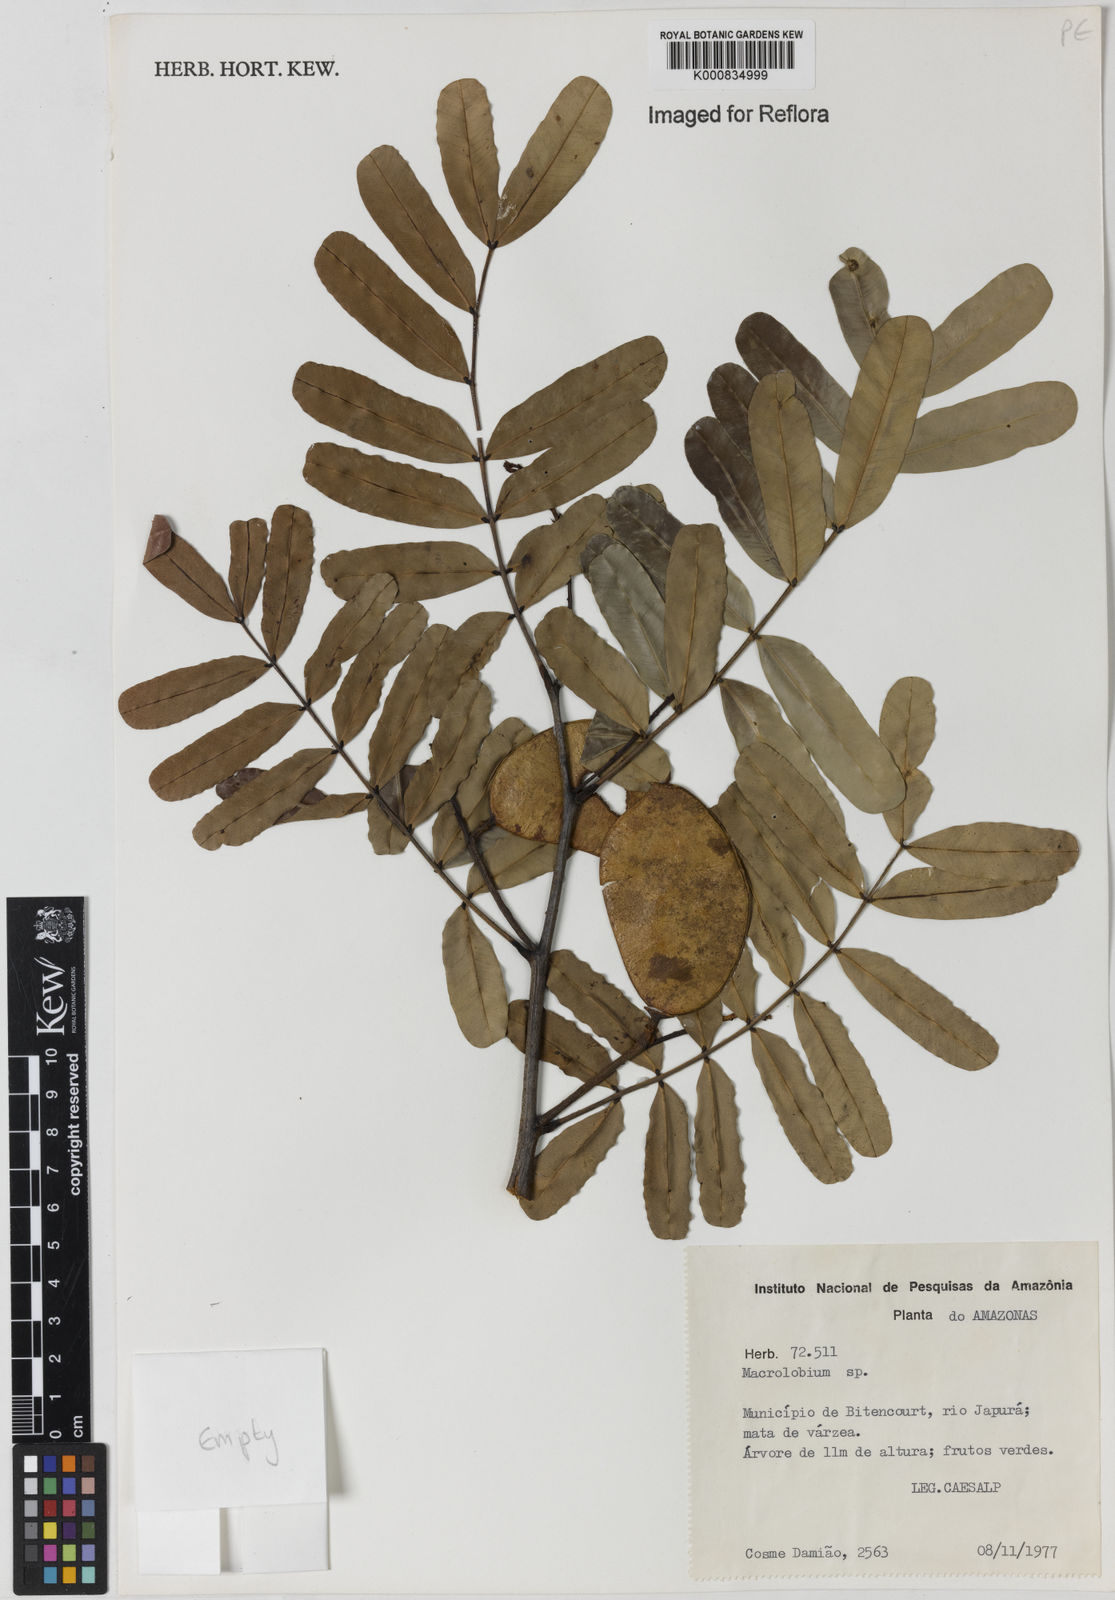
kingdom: Plantae
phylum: Tracheophyta
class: Magnoliopsida
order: Fabales
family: Fabaceae
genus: Macrolobium
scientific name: Macrolobium
